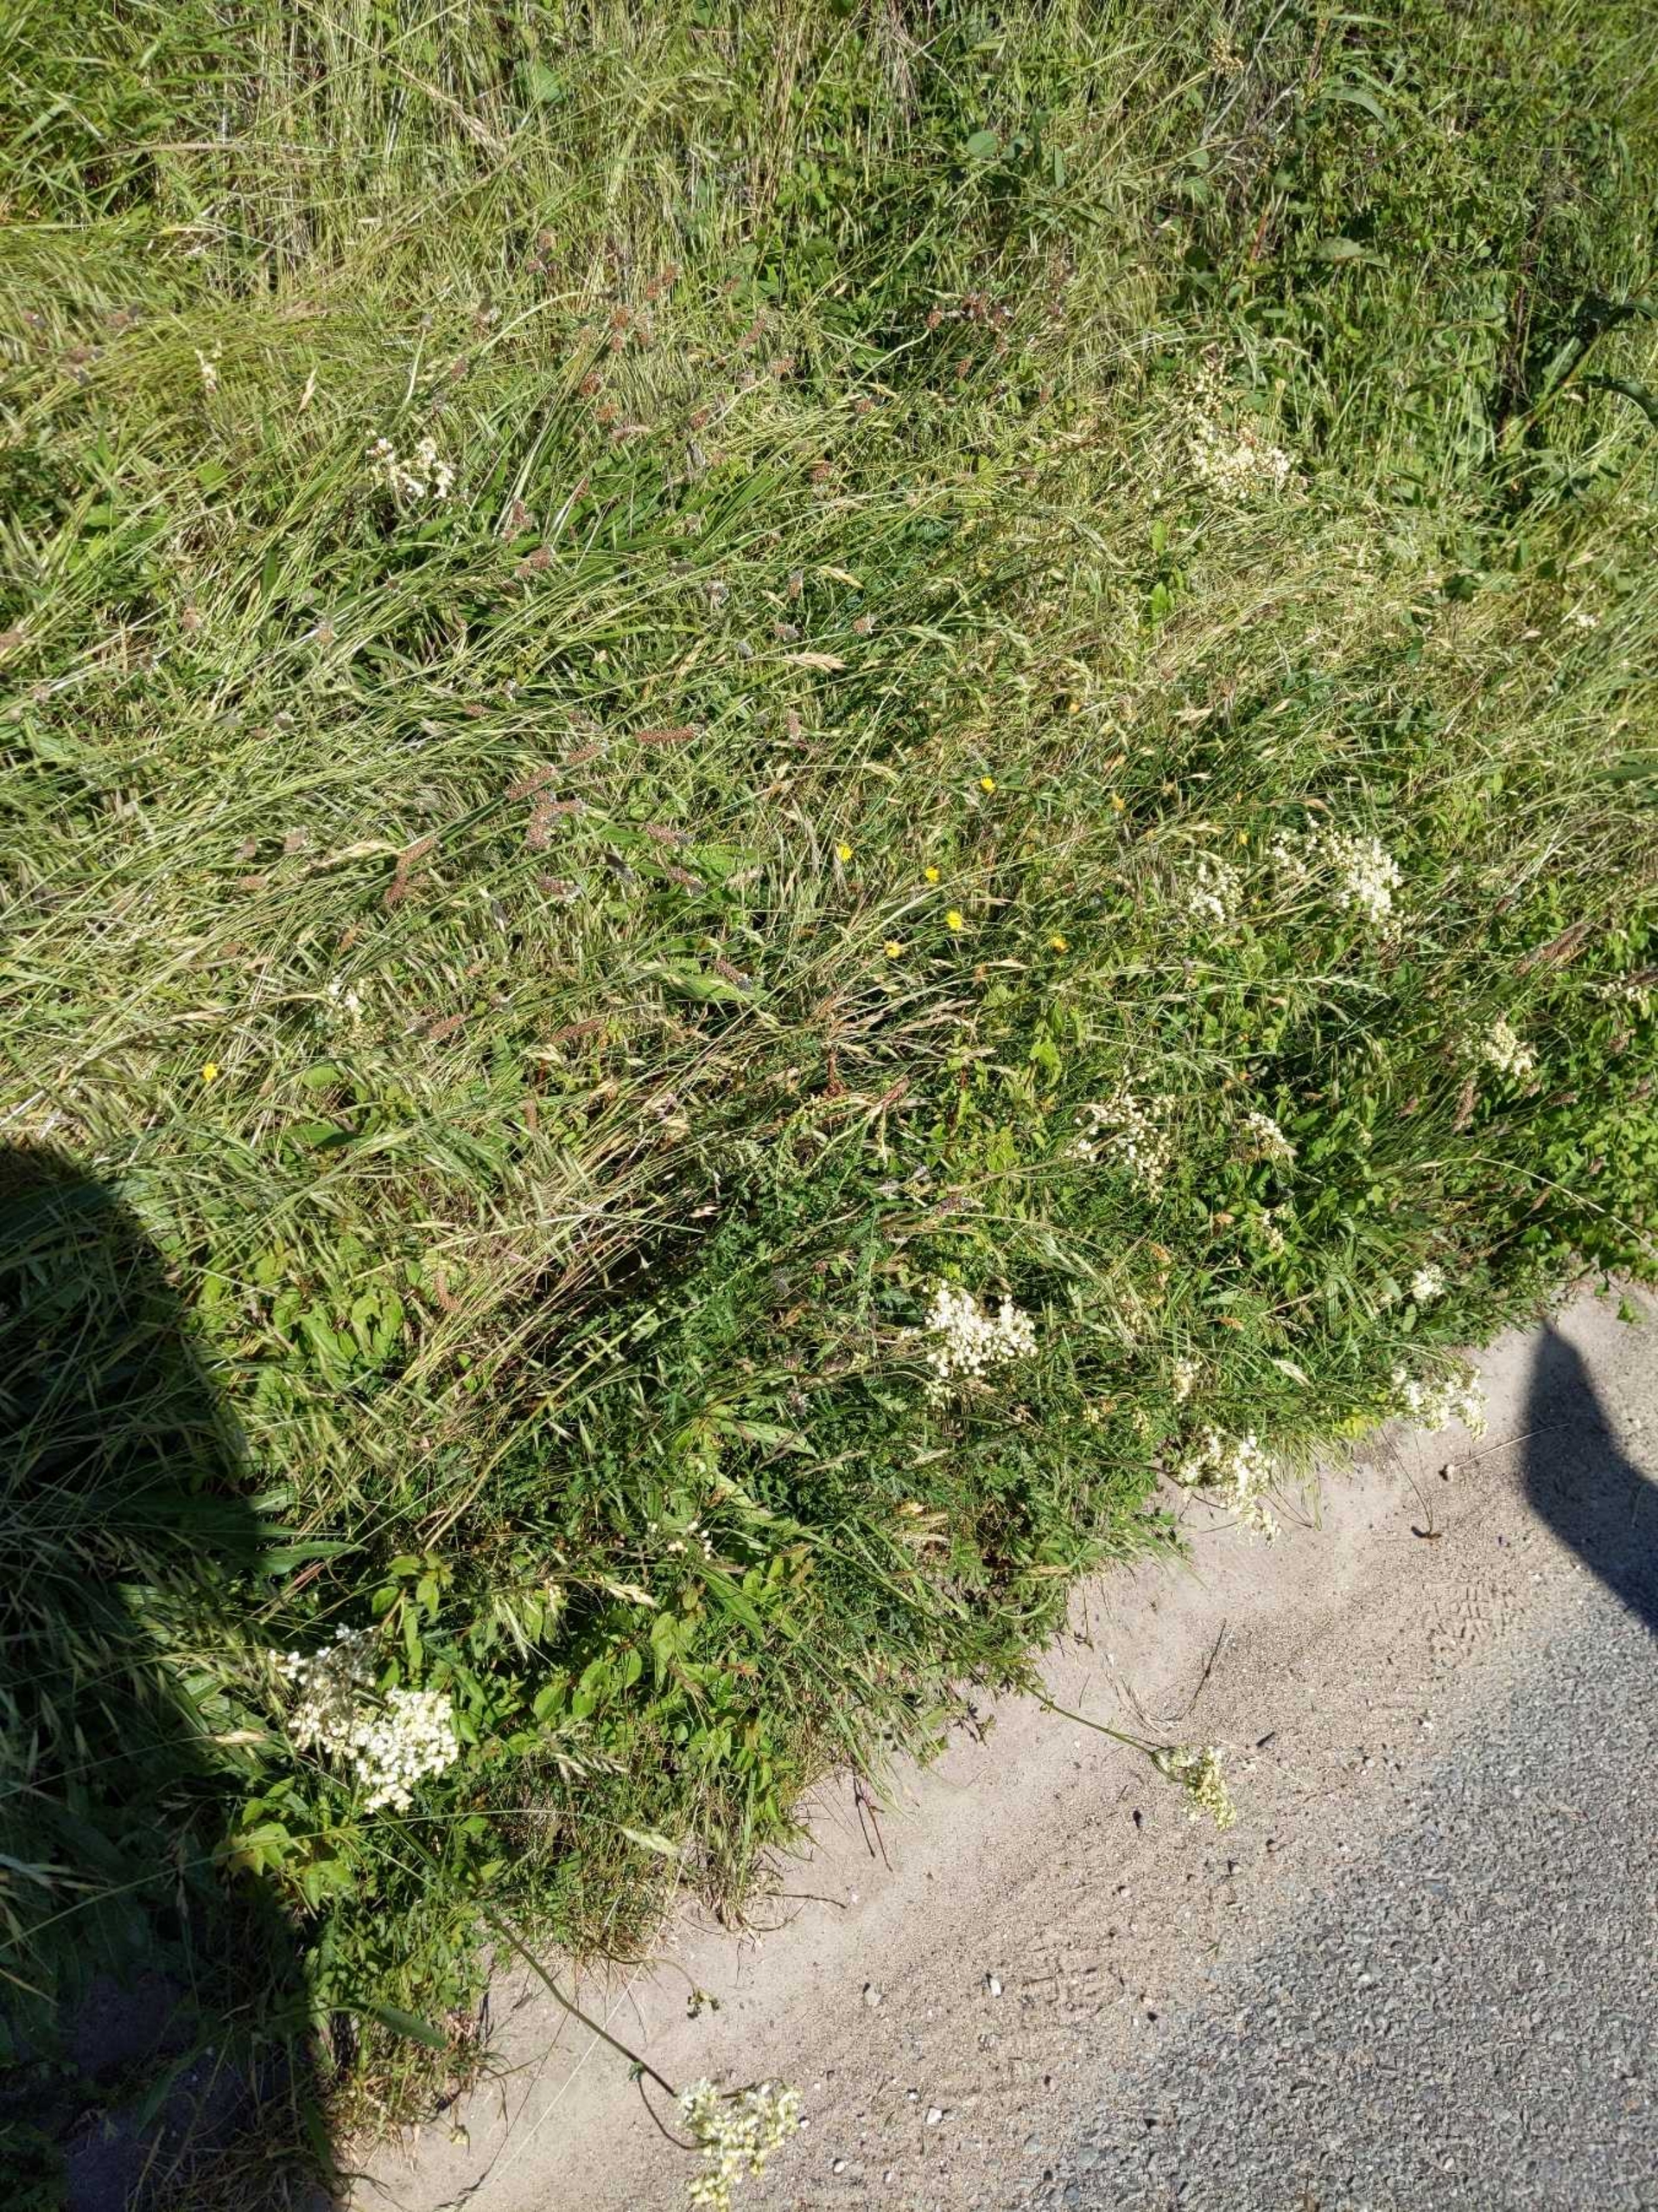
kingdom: Plantae
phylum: Tracheophyta
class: Magnoliopsida
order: Rosales
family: Rosaceae
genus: Filipendula
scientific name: Filipendula vulgaris
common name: Knoldet mjødurt
